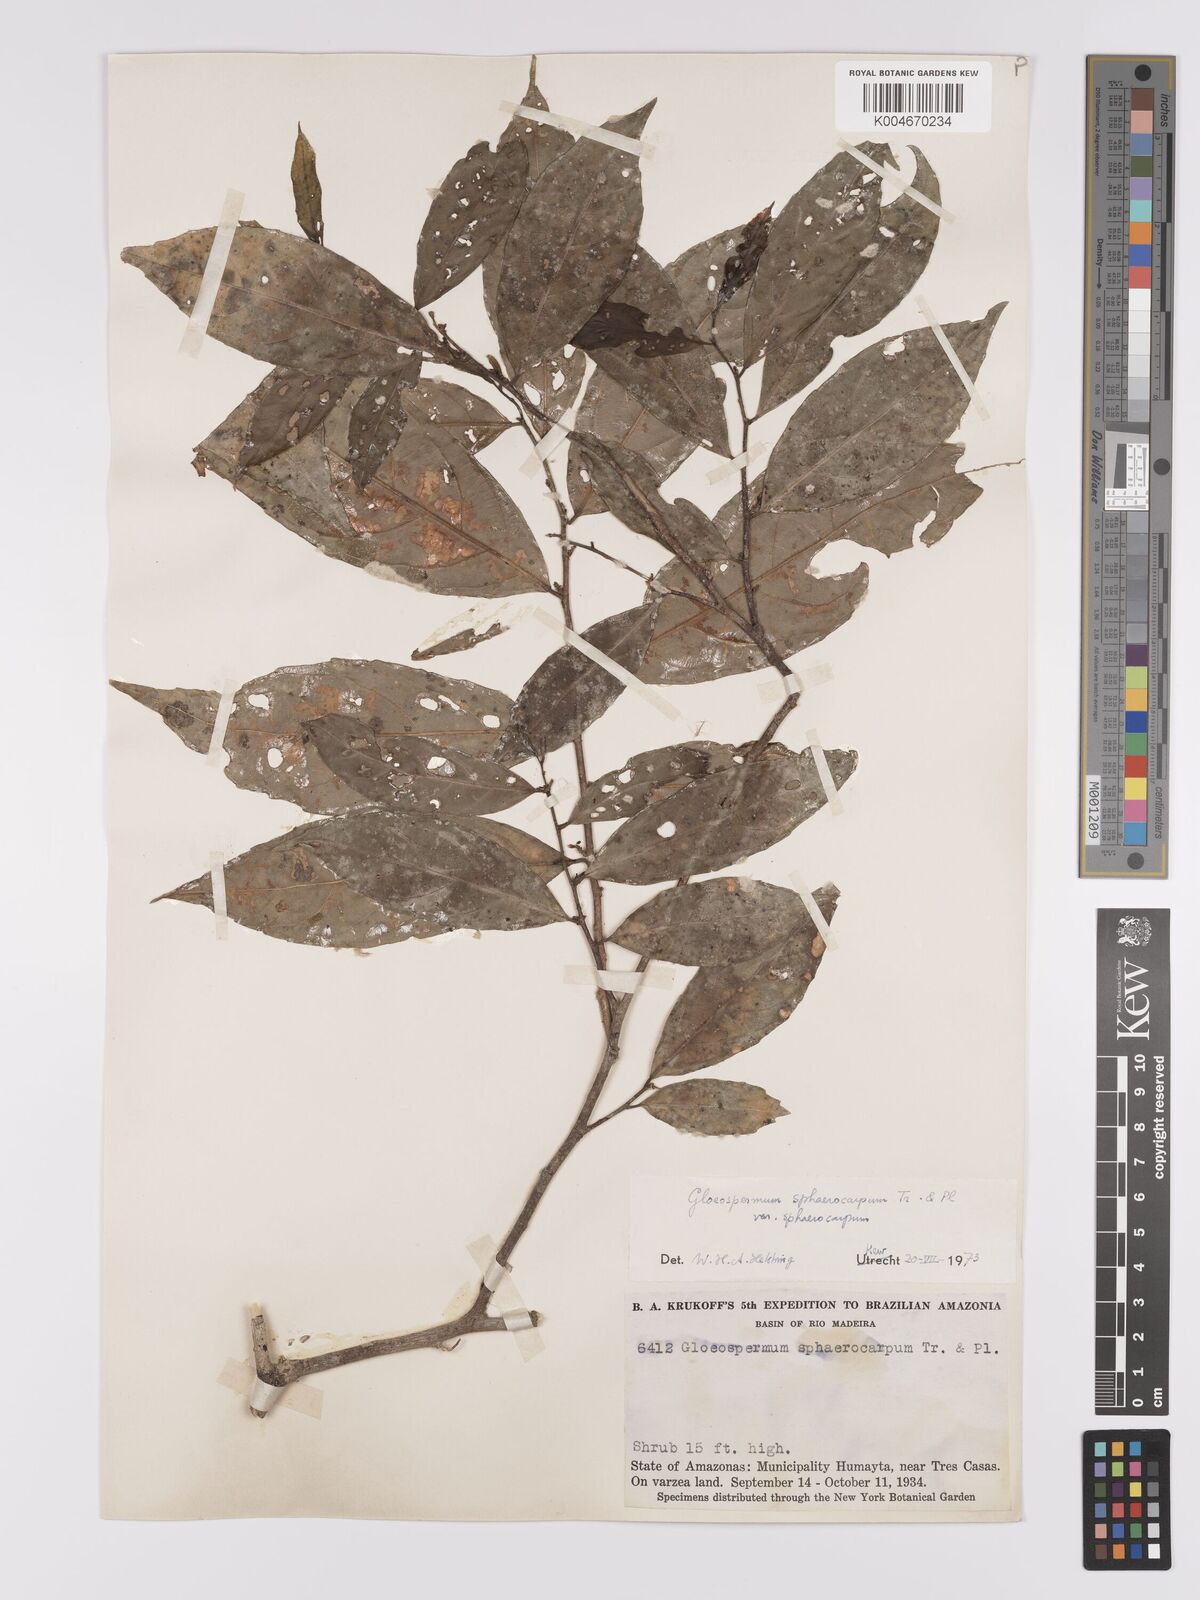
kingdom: Plantae
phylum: Tracheophyta
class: Magnoliopsida
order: Malpighiales
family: Violaceae
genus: Gloeospermum
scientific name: Gloeospermum sphaerocarpum
